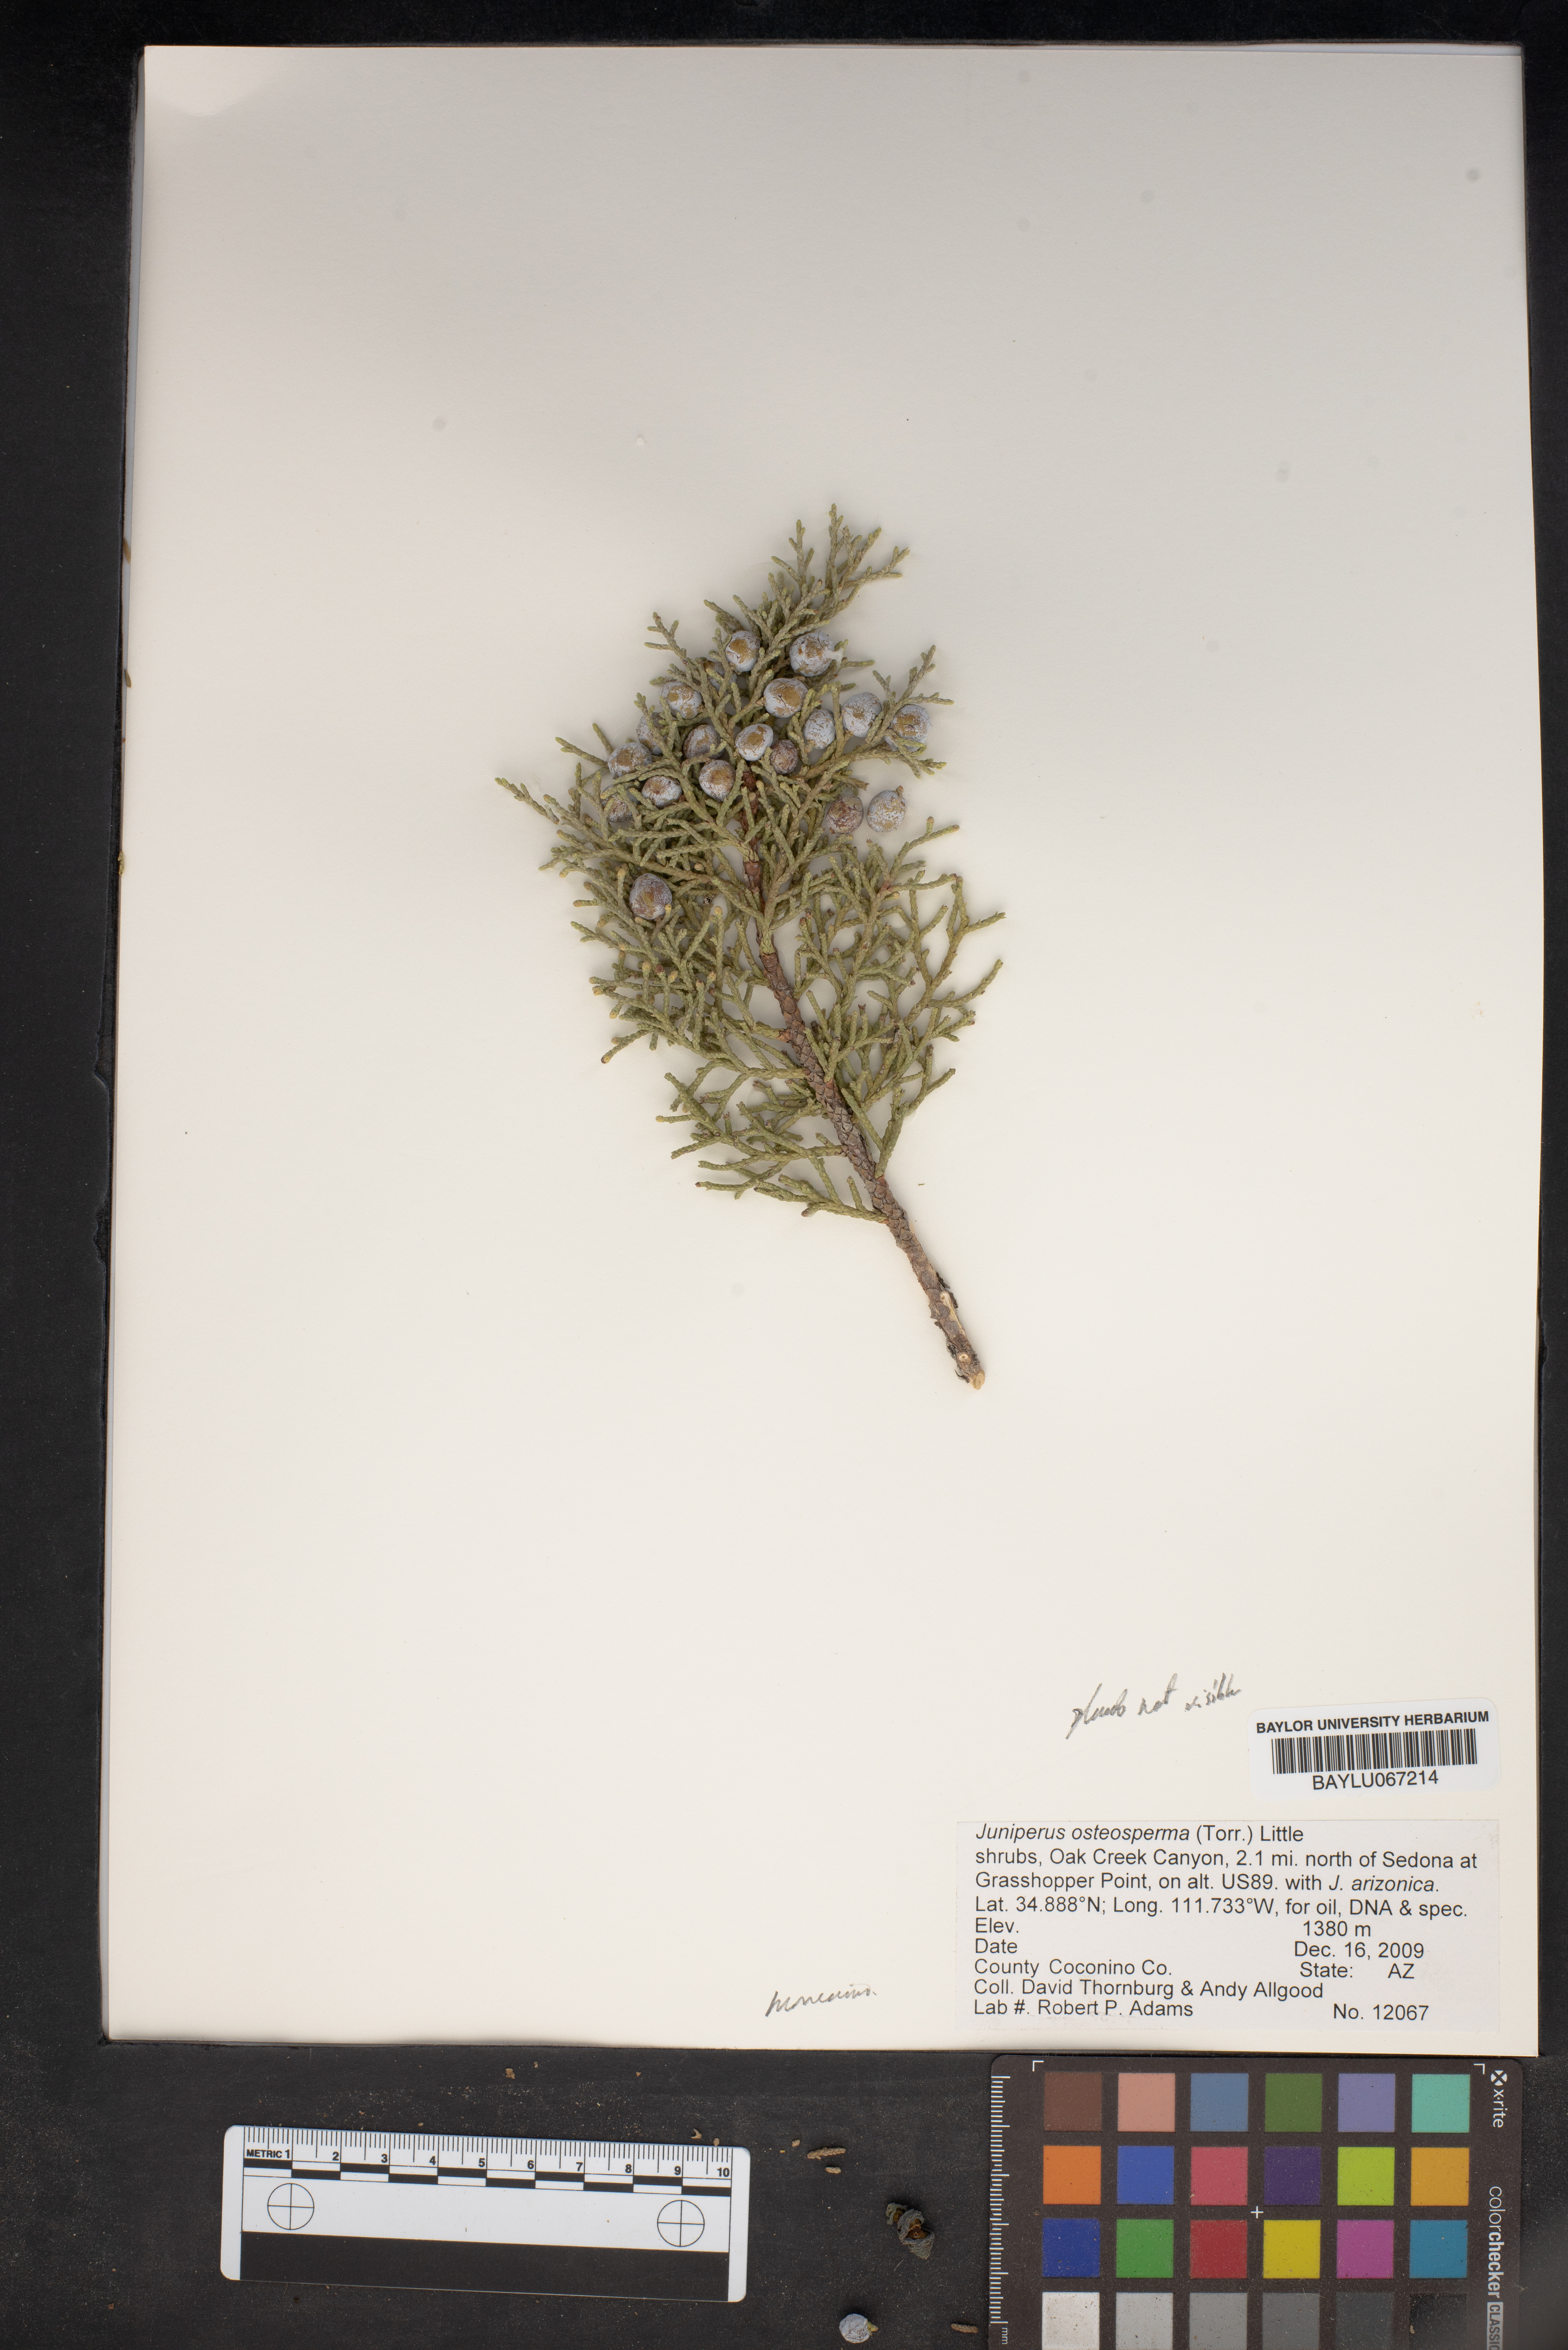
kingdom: Plantae
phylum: Tracheophyta
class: Pinopsida
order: Pinales
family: Cupressaceae
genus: Juniperus
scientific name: Juniperus osteosperma
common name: Utah juniper
